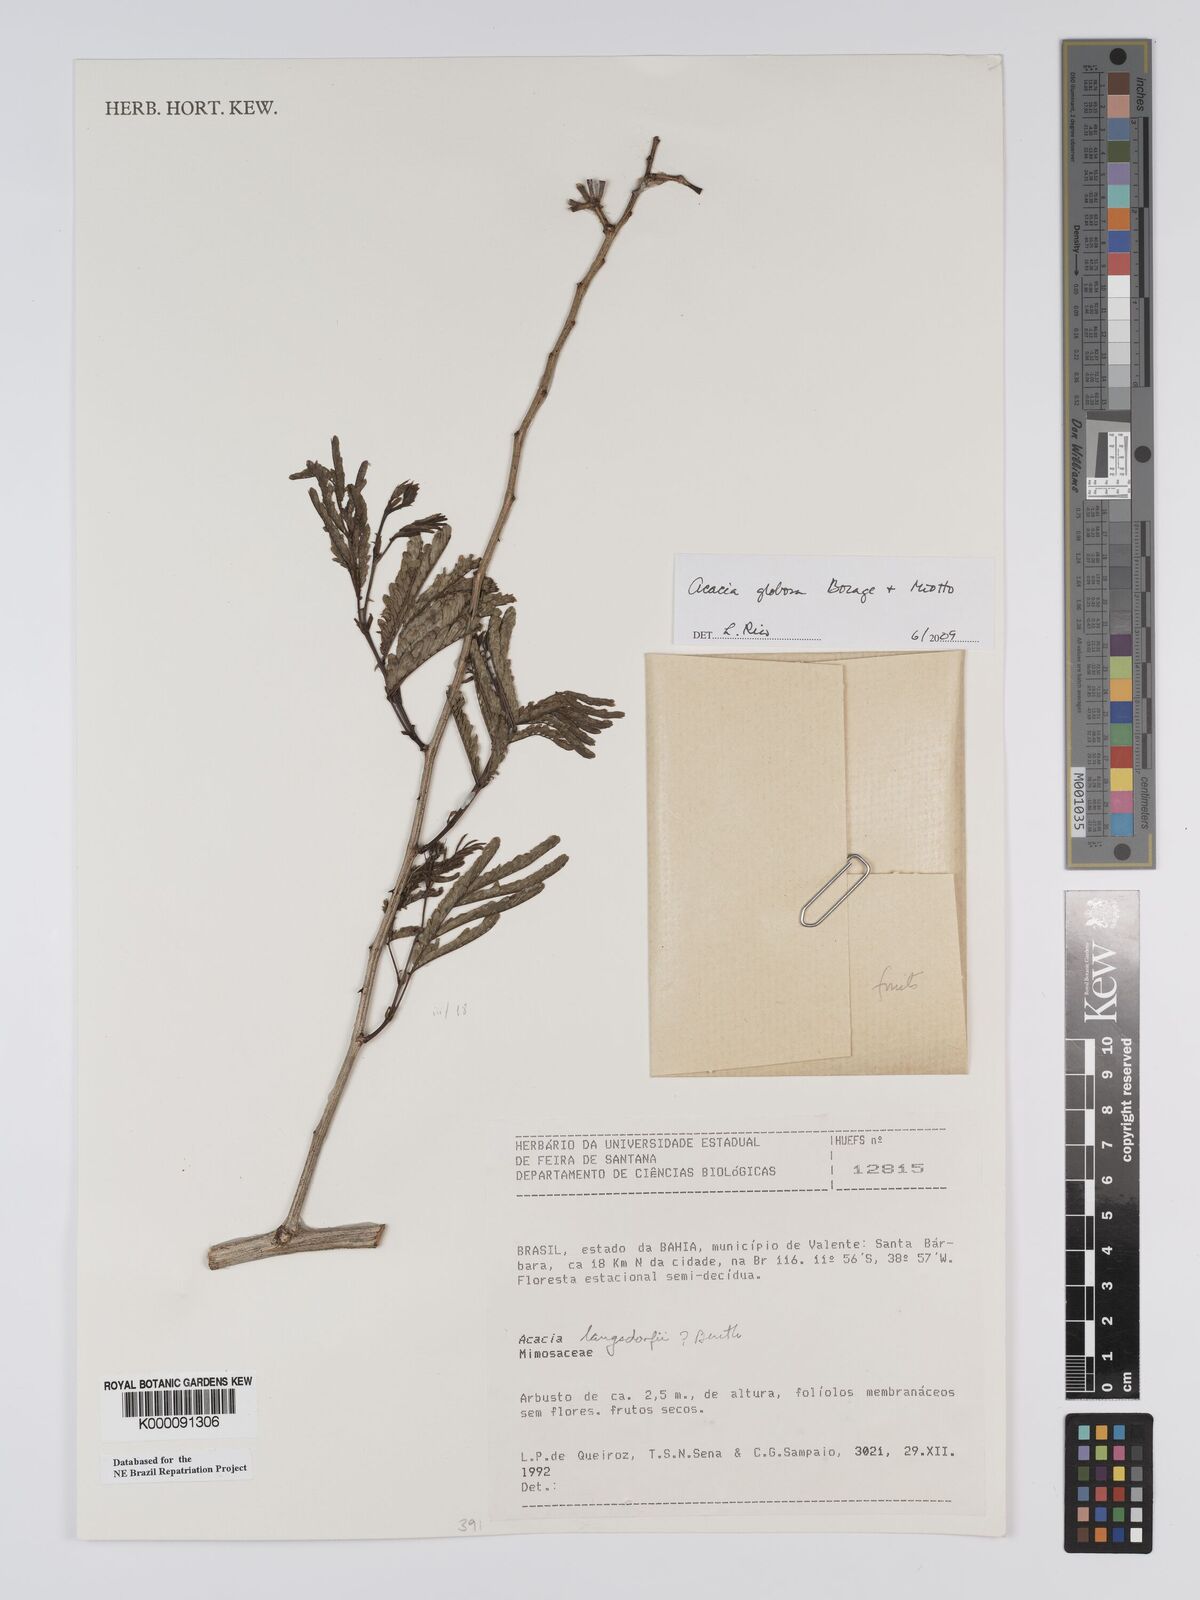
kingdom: Plantae
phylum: Tracheophyta
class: Magnoliopsida
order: Fabales
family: Fabaceae
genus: Senegalia
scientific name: Senegalia globosa
